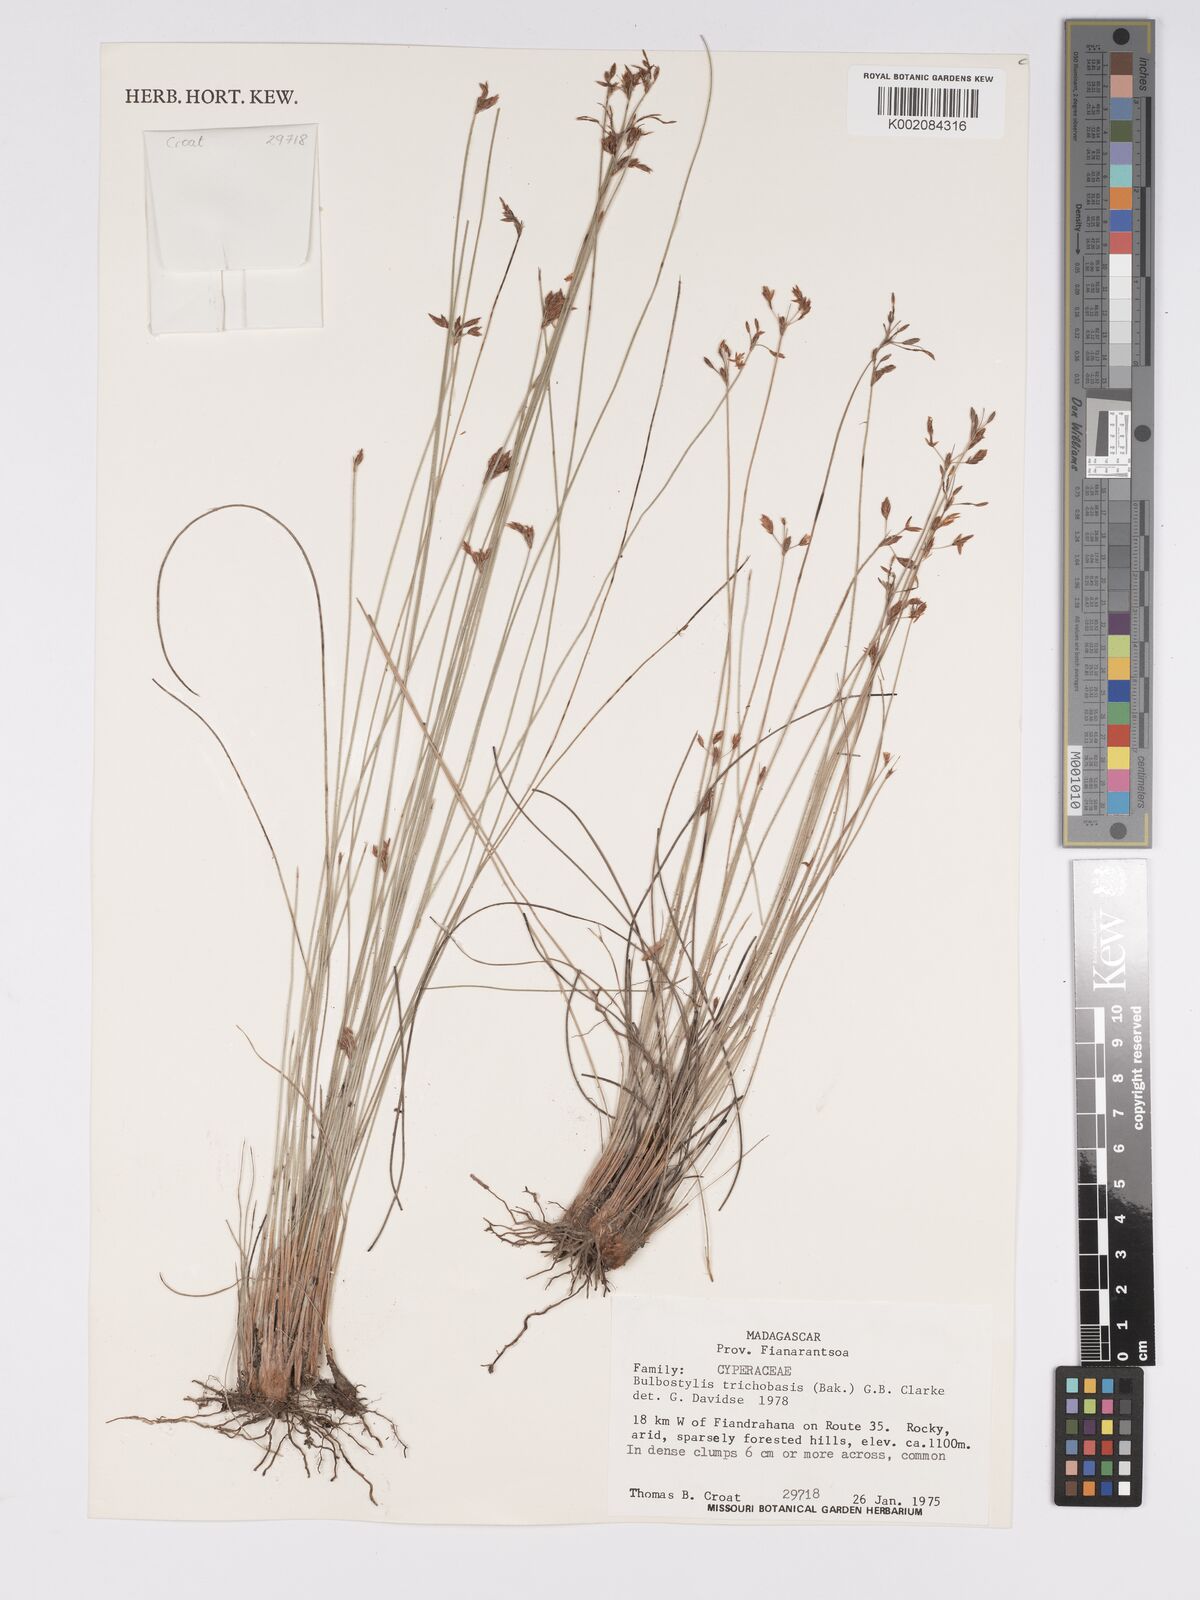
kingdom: Plantae
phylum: Tracheophyta
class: Liliopsida
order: Poales
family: Cyperaceae
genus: Bulbostylis
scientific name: Bulbostylis trichobasis
